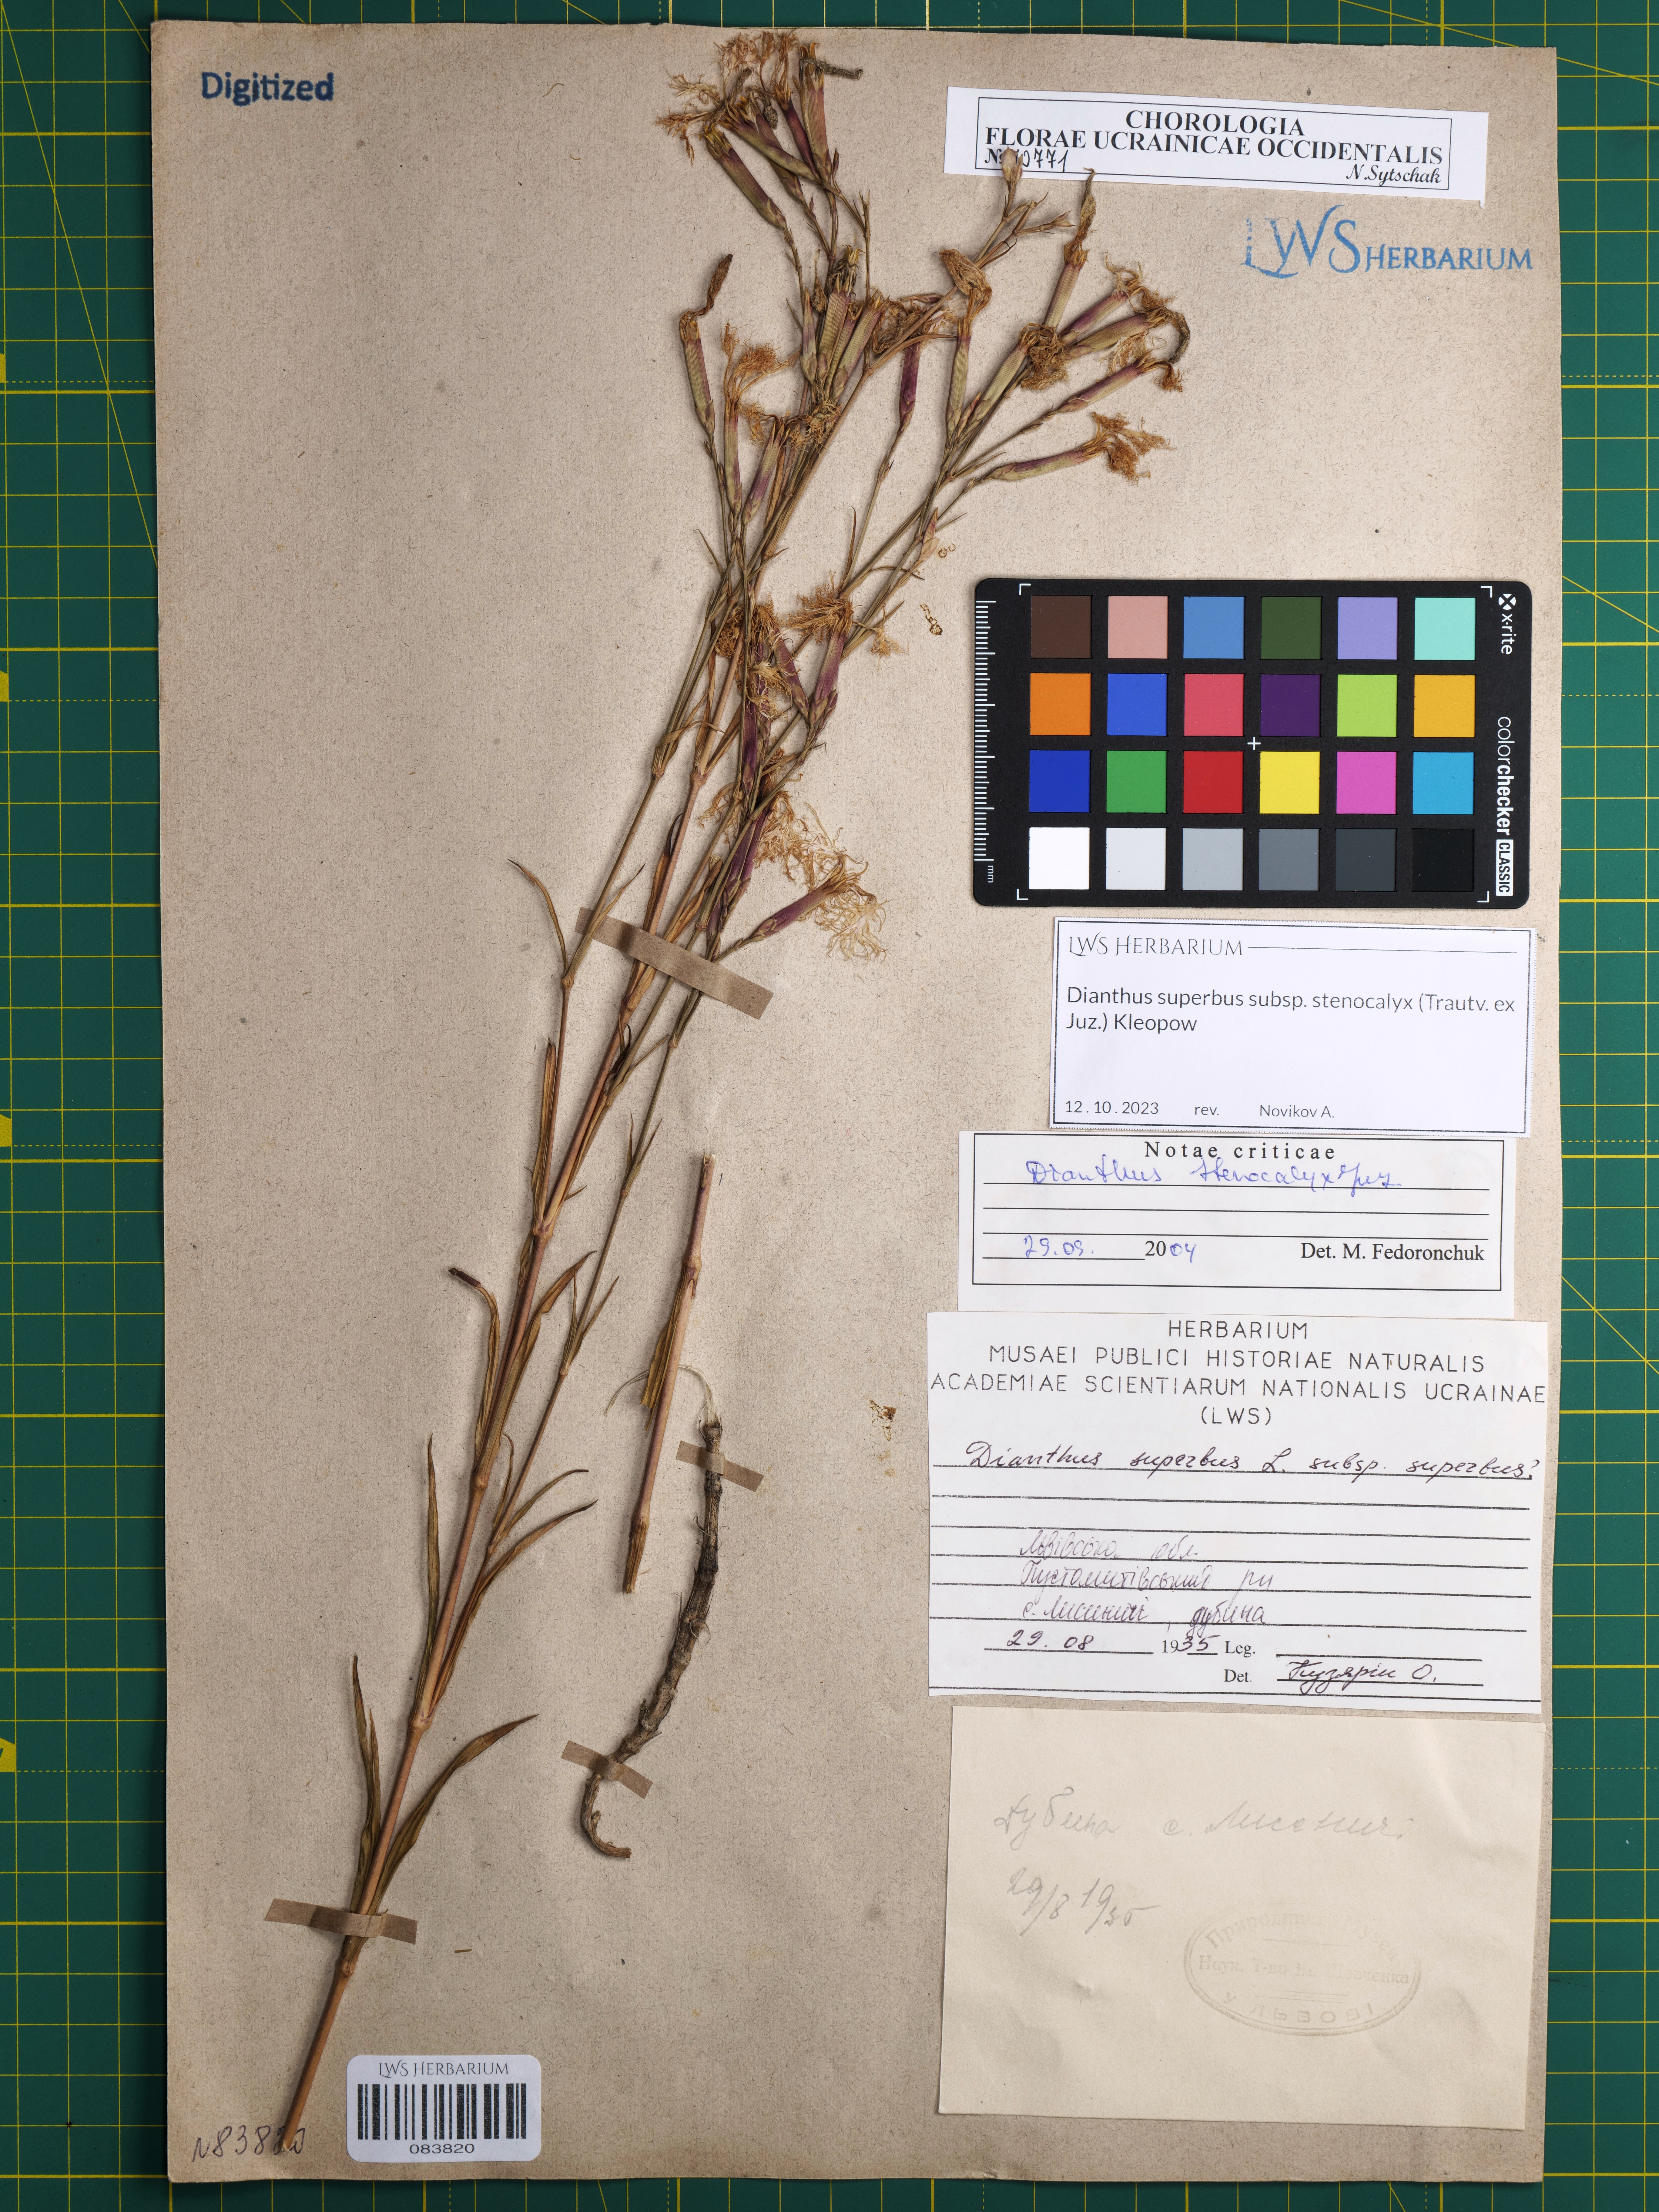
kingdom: Plantae
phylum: Tracheophyta
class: Magnoliopsida
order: Caryophyllales
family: Caryophyllaceae
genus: Dianthus
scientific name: Dianthus superbus
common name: Fringed pink
